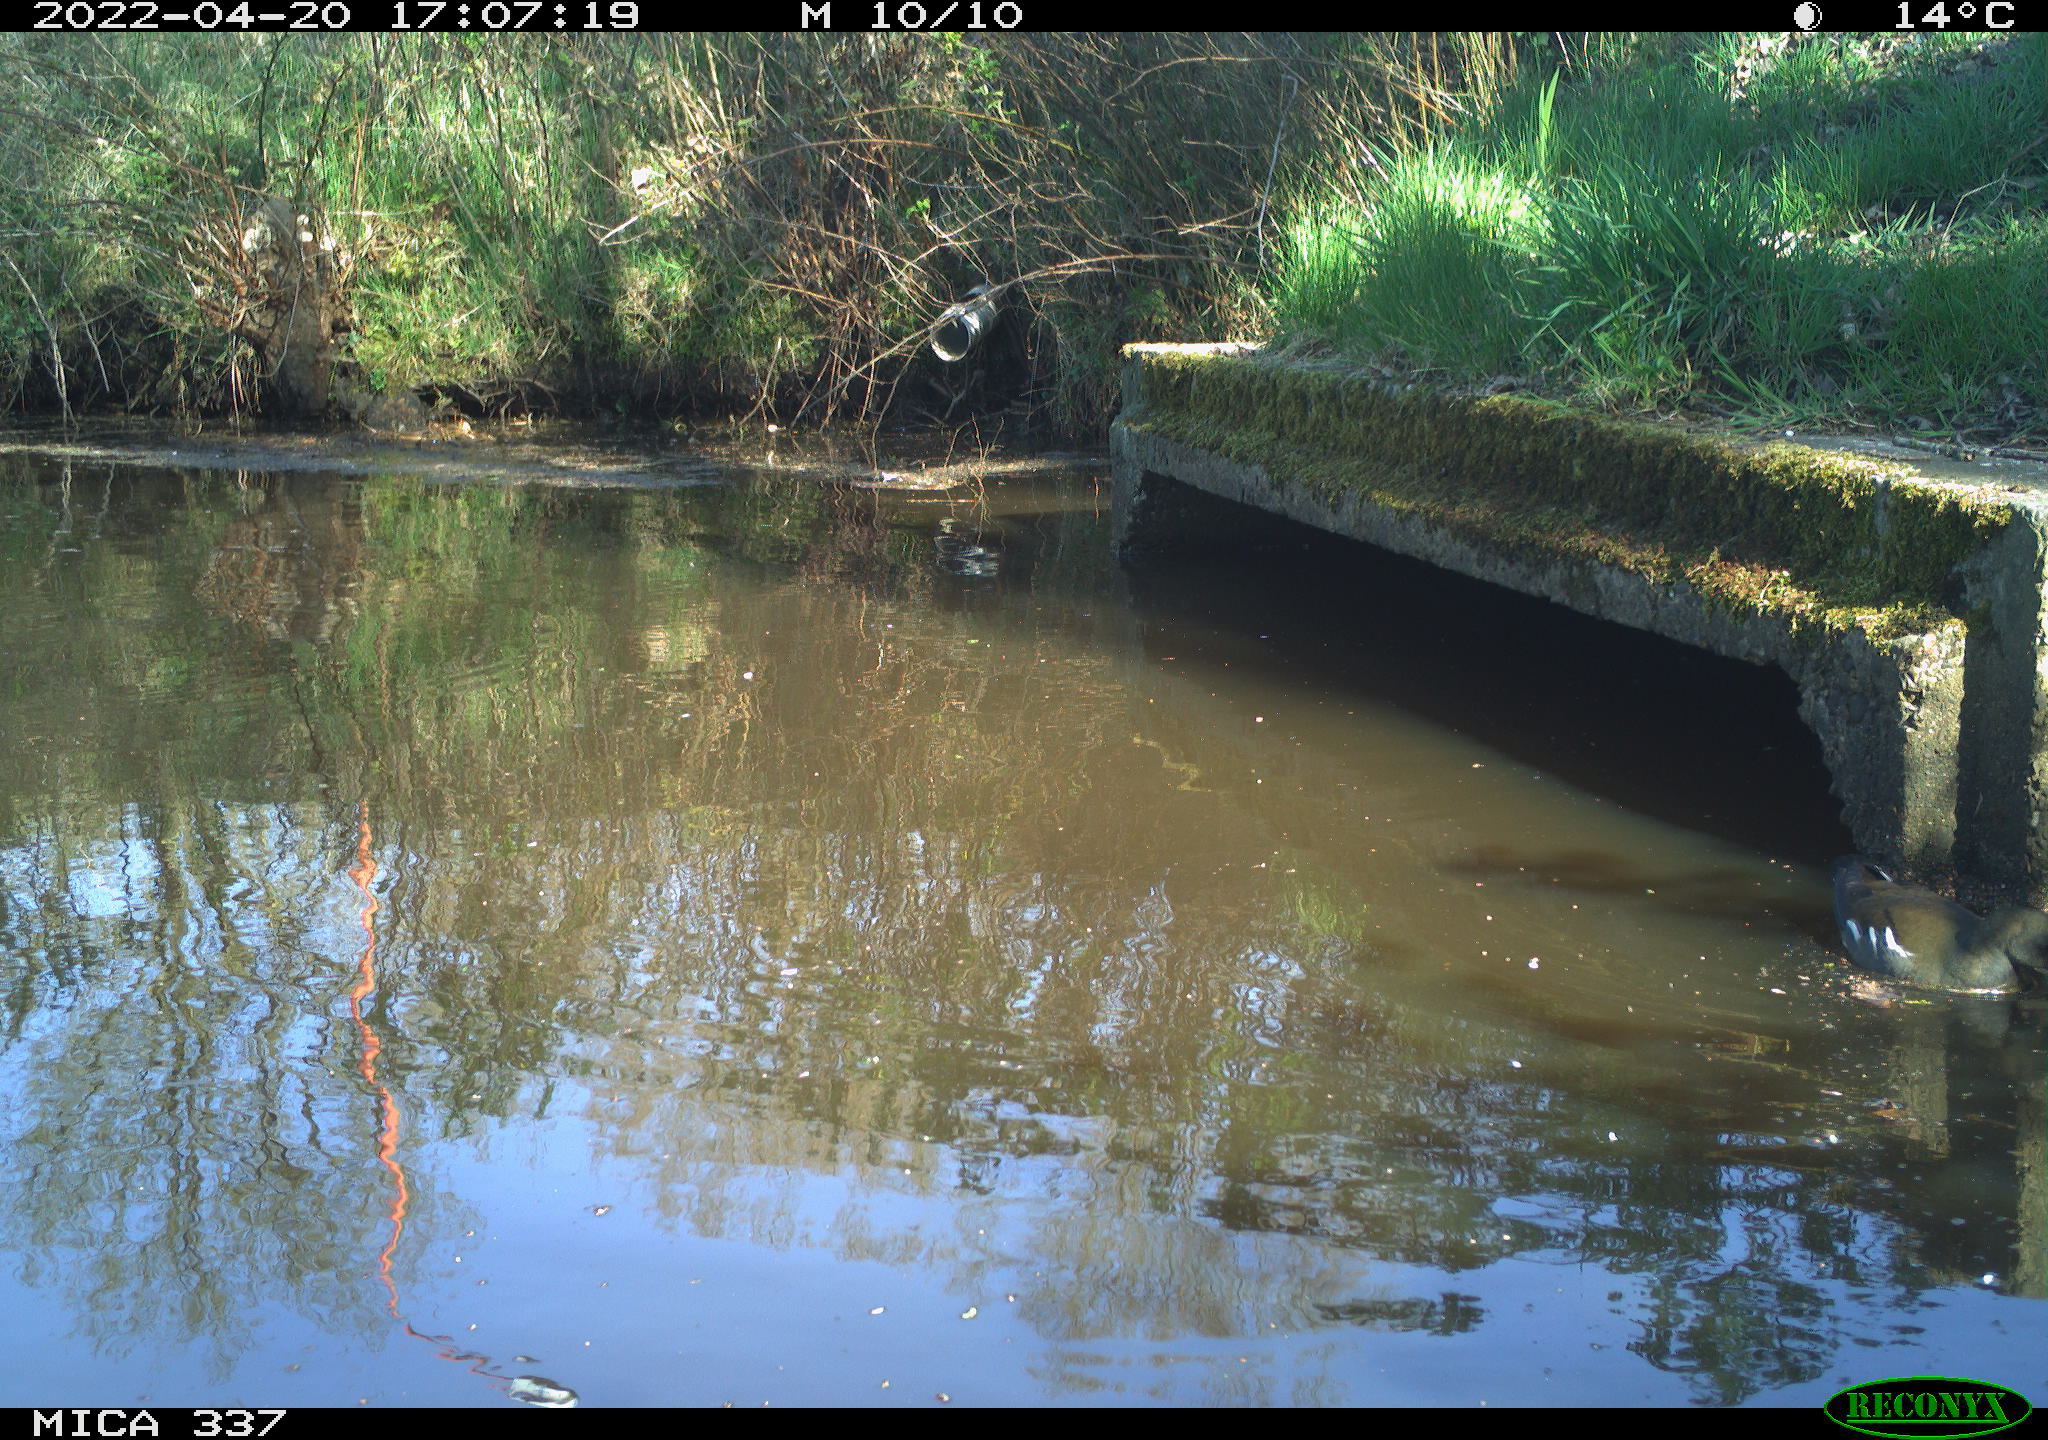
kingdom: Animalia
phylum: Chordata
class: Aves
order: Gruiformes
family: Rallidae
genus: Gallinula
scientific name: Gallinula chloropus
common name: Common moorhen
